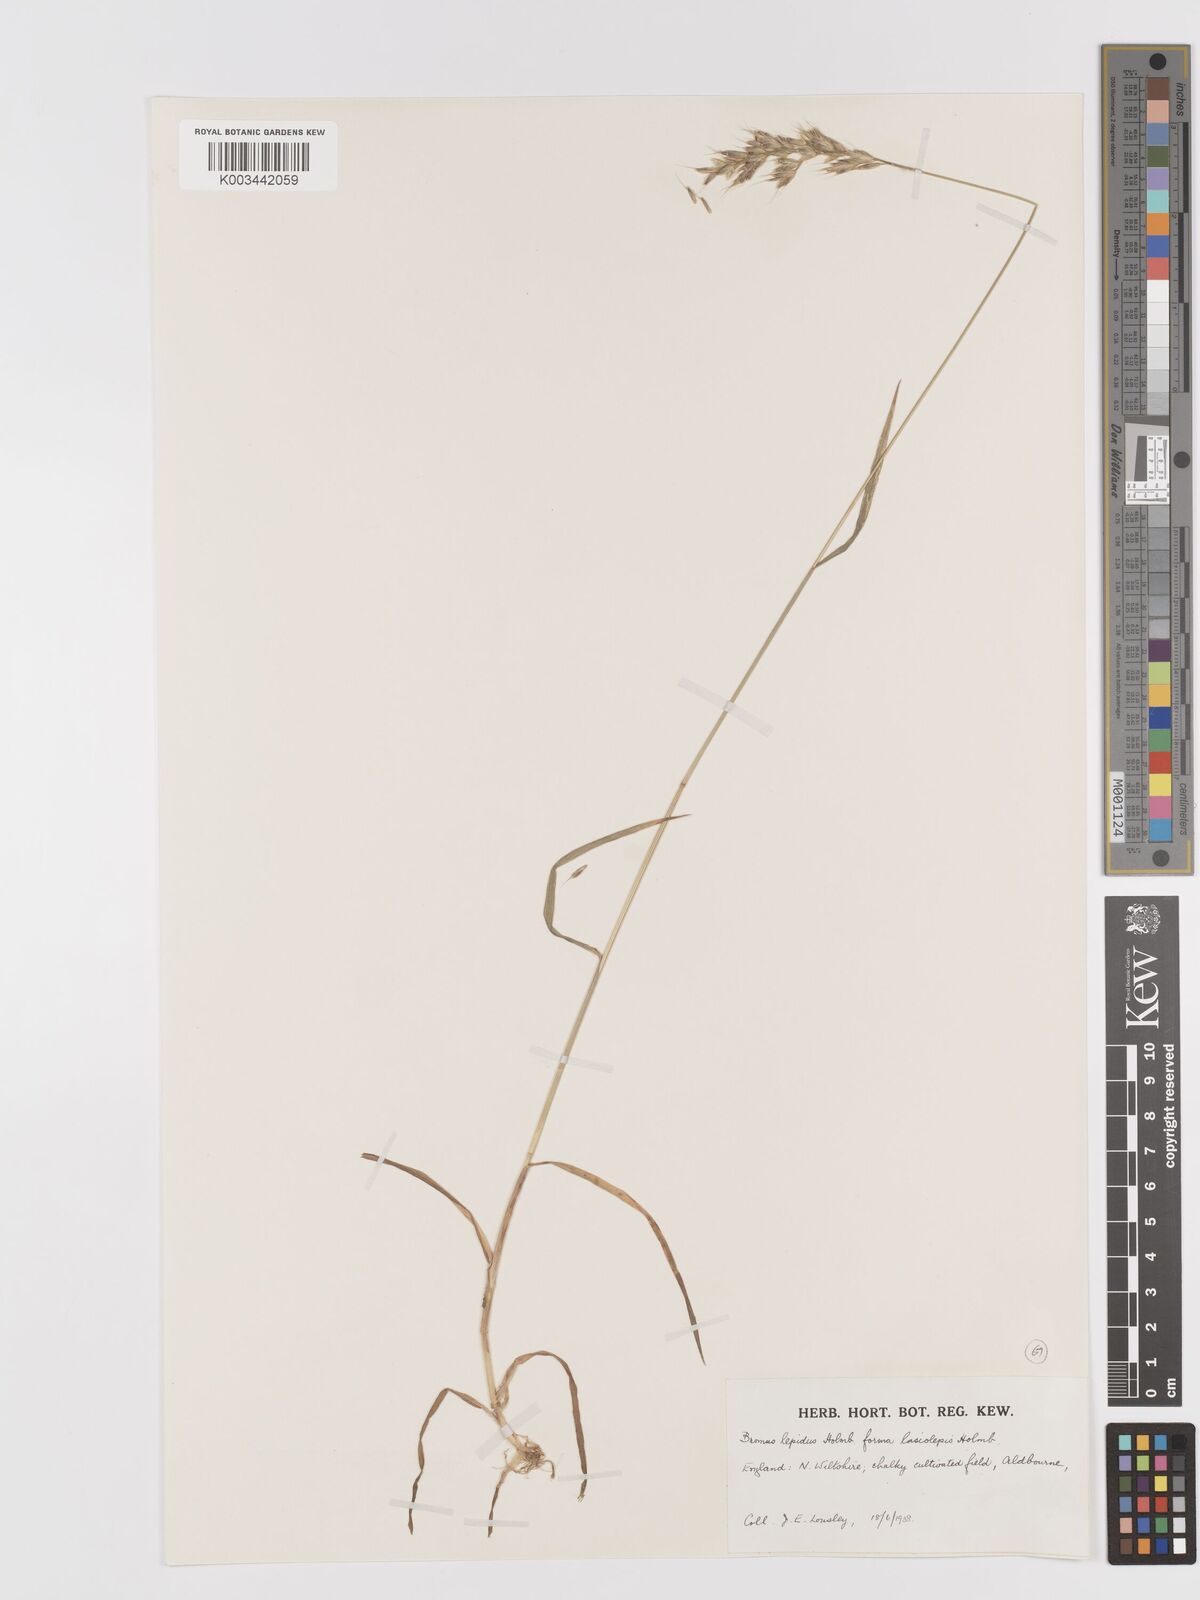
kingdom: Plantae
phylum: Tracheophyta
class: Liliopsida
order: Poales
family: Poaceae
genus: Bromus
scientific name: Bromus lepidus
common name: Slender soft-brome
